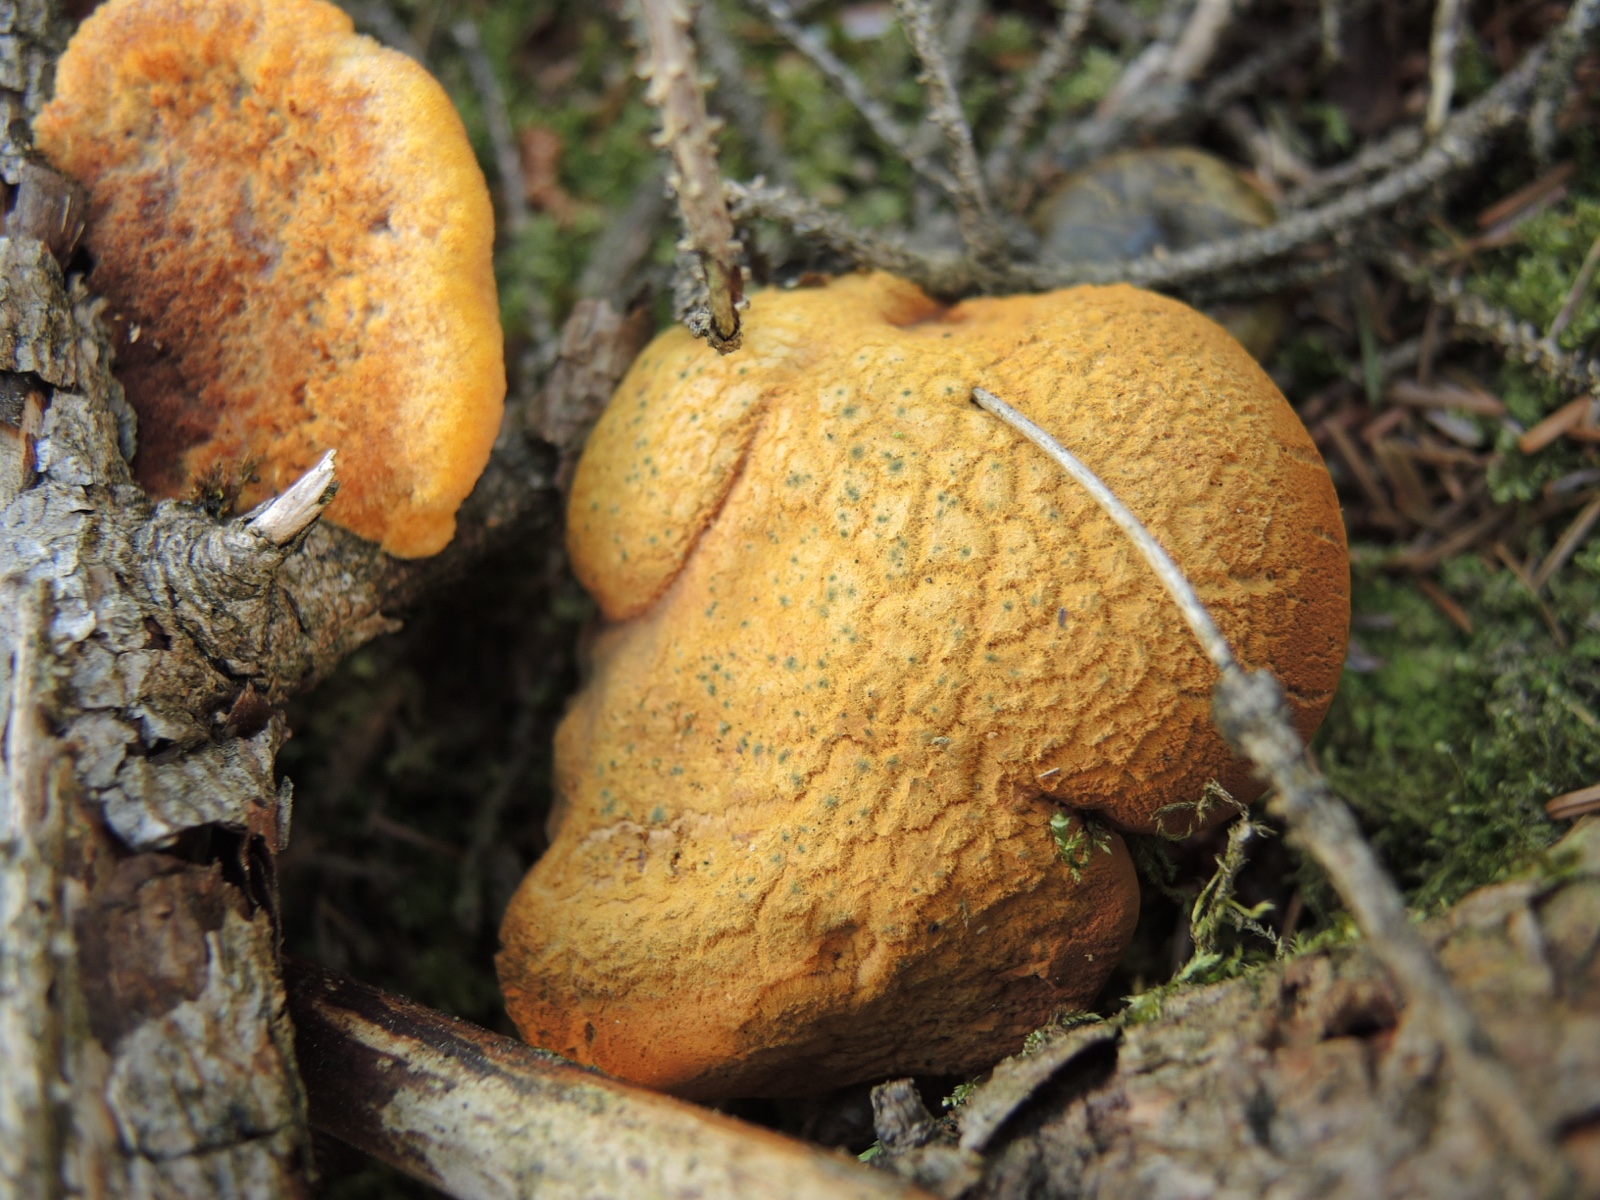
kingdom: Fungi
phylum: Basidiomycota
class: Agaricomycetes
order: Boletales
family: Boletaceae
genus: Buchwaldoboletus
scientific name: Buchwaldoboletus lignicola
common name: stødrørhat
